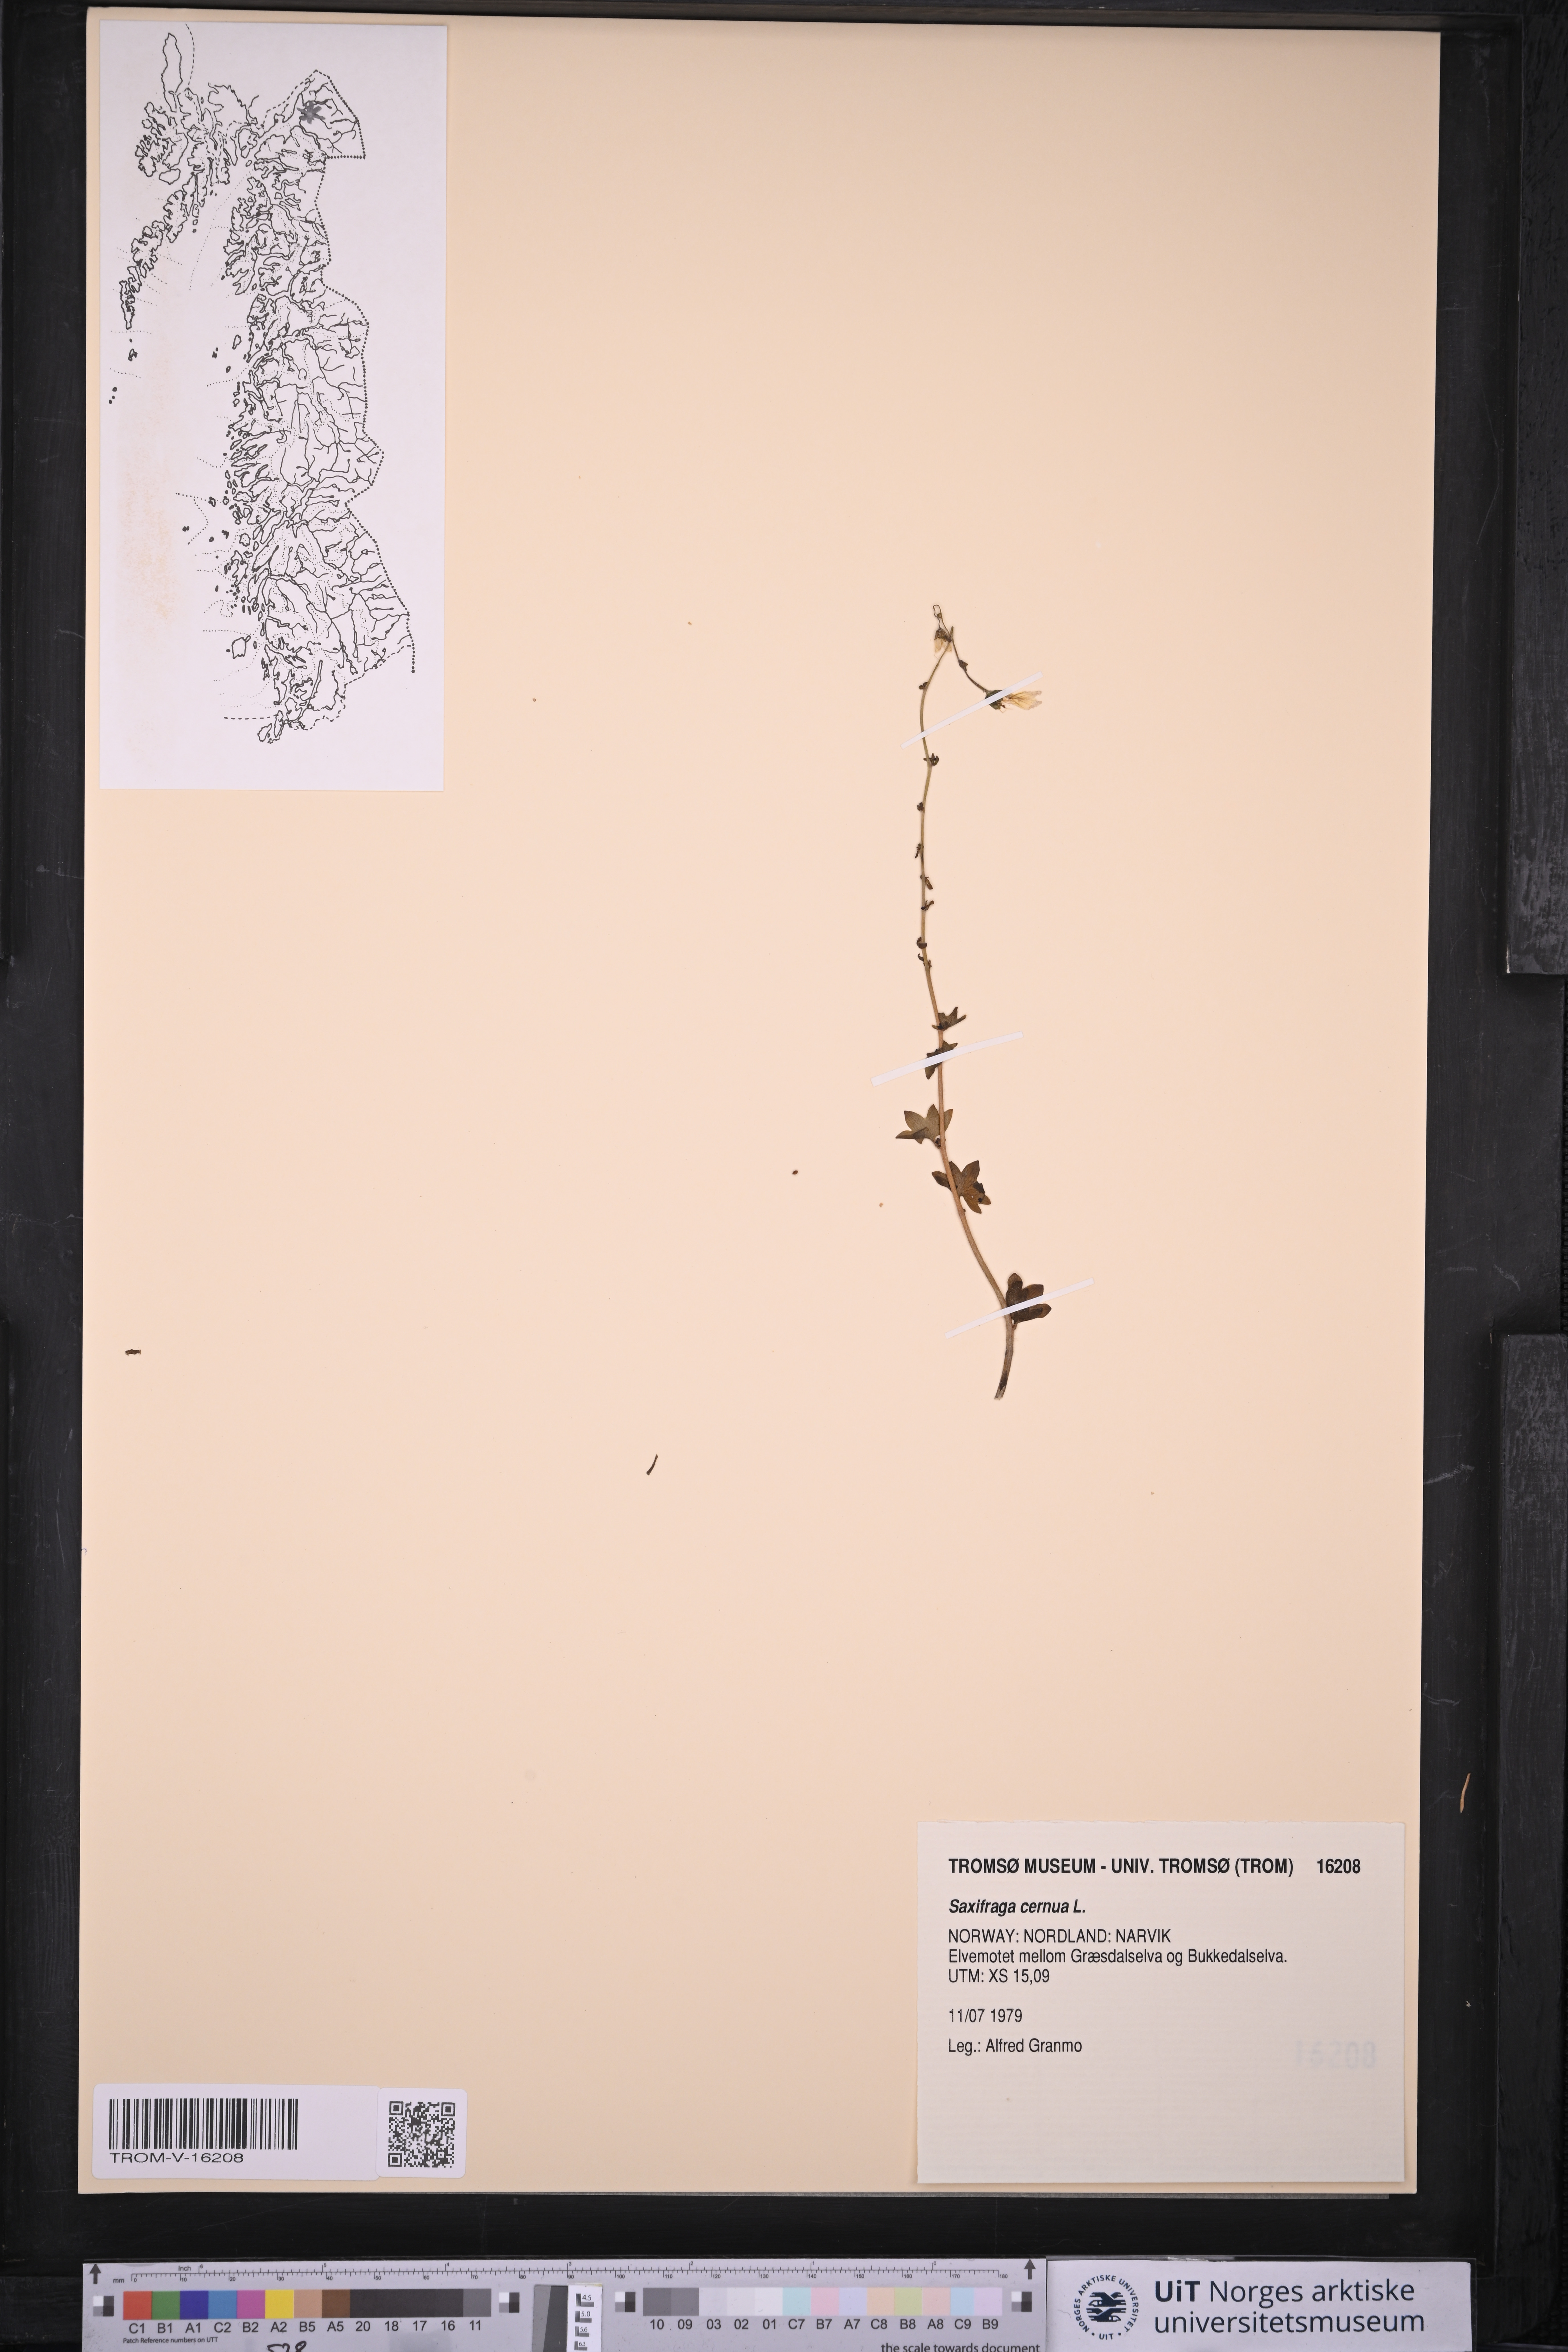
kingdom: Plantae
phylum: Tracheophyta
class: Magnoliopsida
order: Saxifragales
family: Saxifragaceae
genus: Saxifraga
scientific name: Saxifraga cernua
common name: Drooping saxifrage
